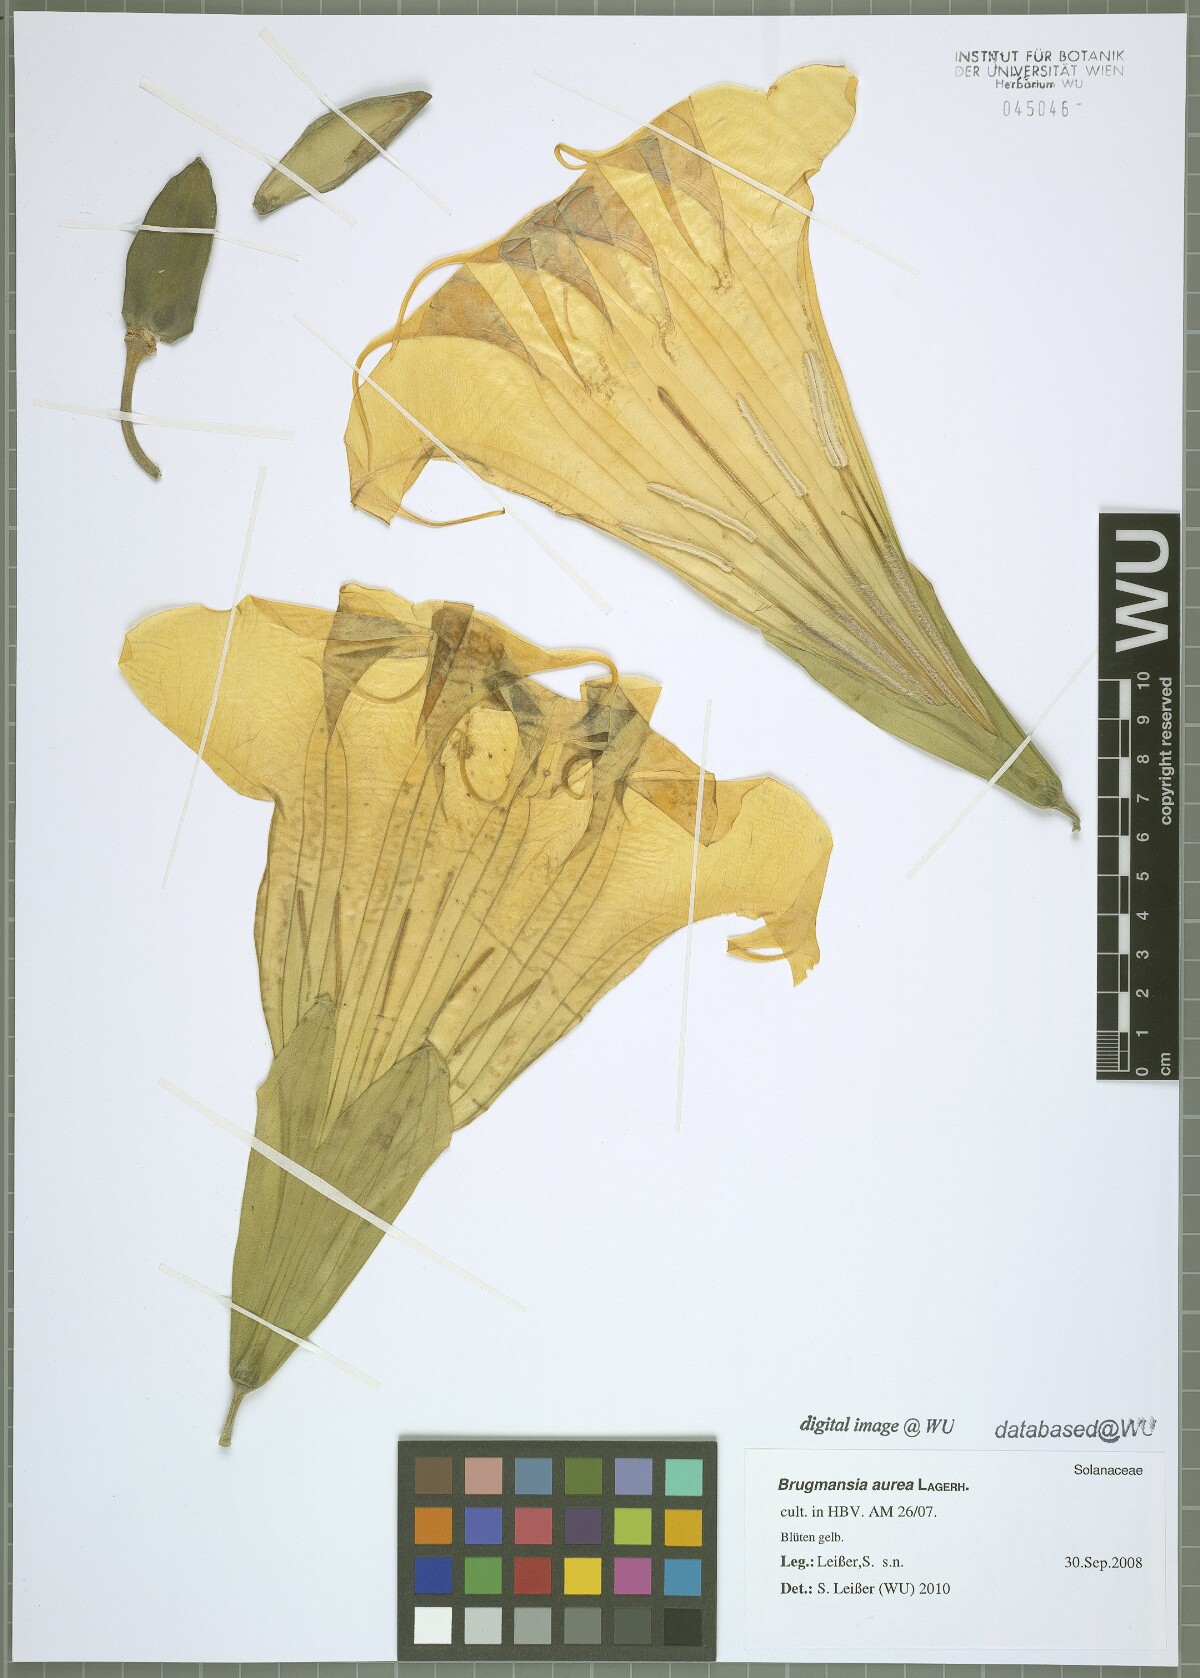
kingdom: Plantae
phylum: Tracheophyta
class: Magnoliopsida
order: Solanales
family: Solanaceae
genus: Brugmansia
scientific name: Brugmansia aurea
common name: Yellow angel's-trumpet
